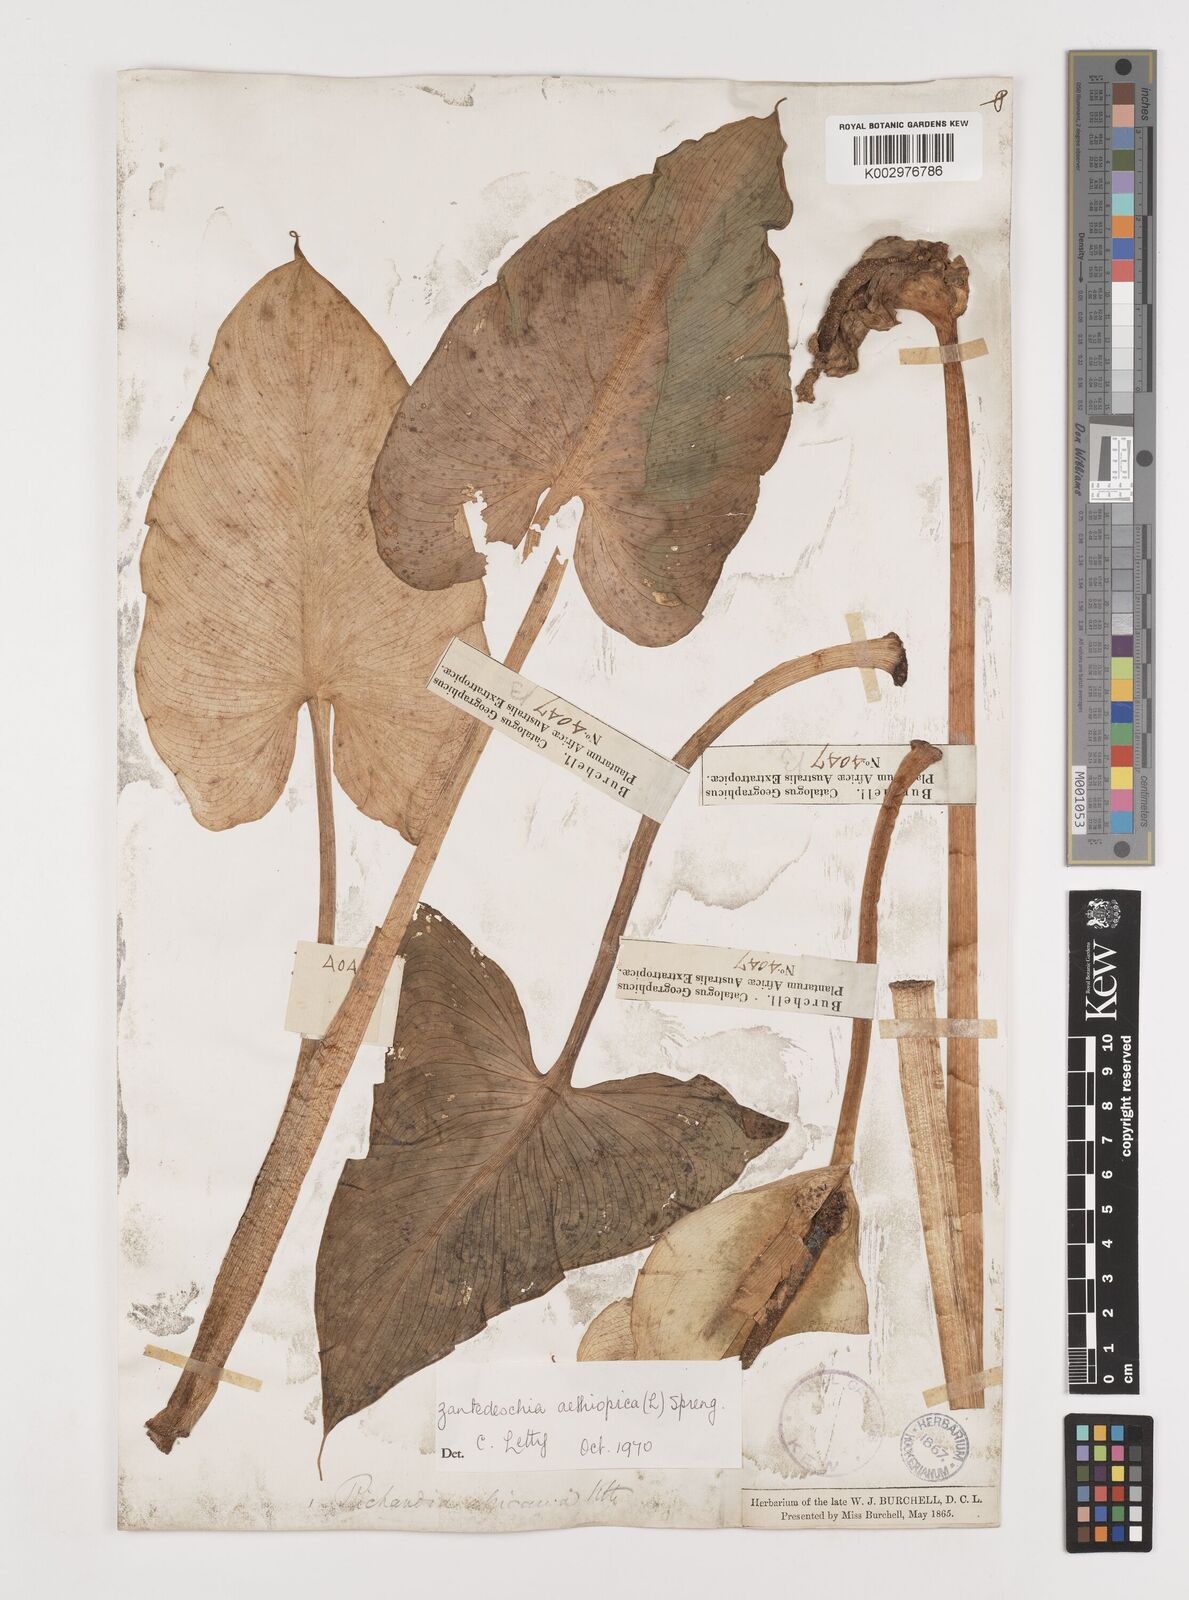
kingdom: Plantae
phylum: Tracheophyta
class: Liliopsida
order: Alismatales
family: Araceae
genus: Zantedeschia
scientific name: Zantedeschia aethiopica
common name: Altar-lily
